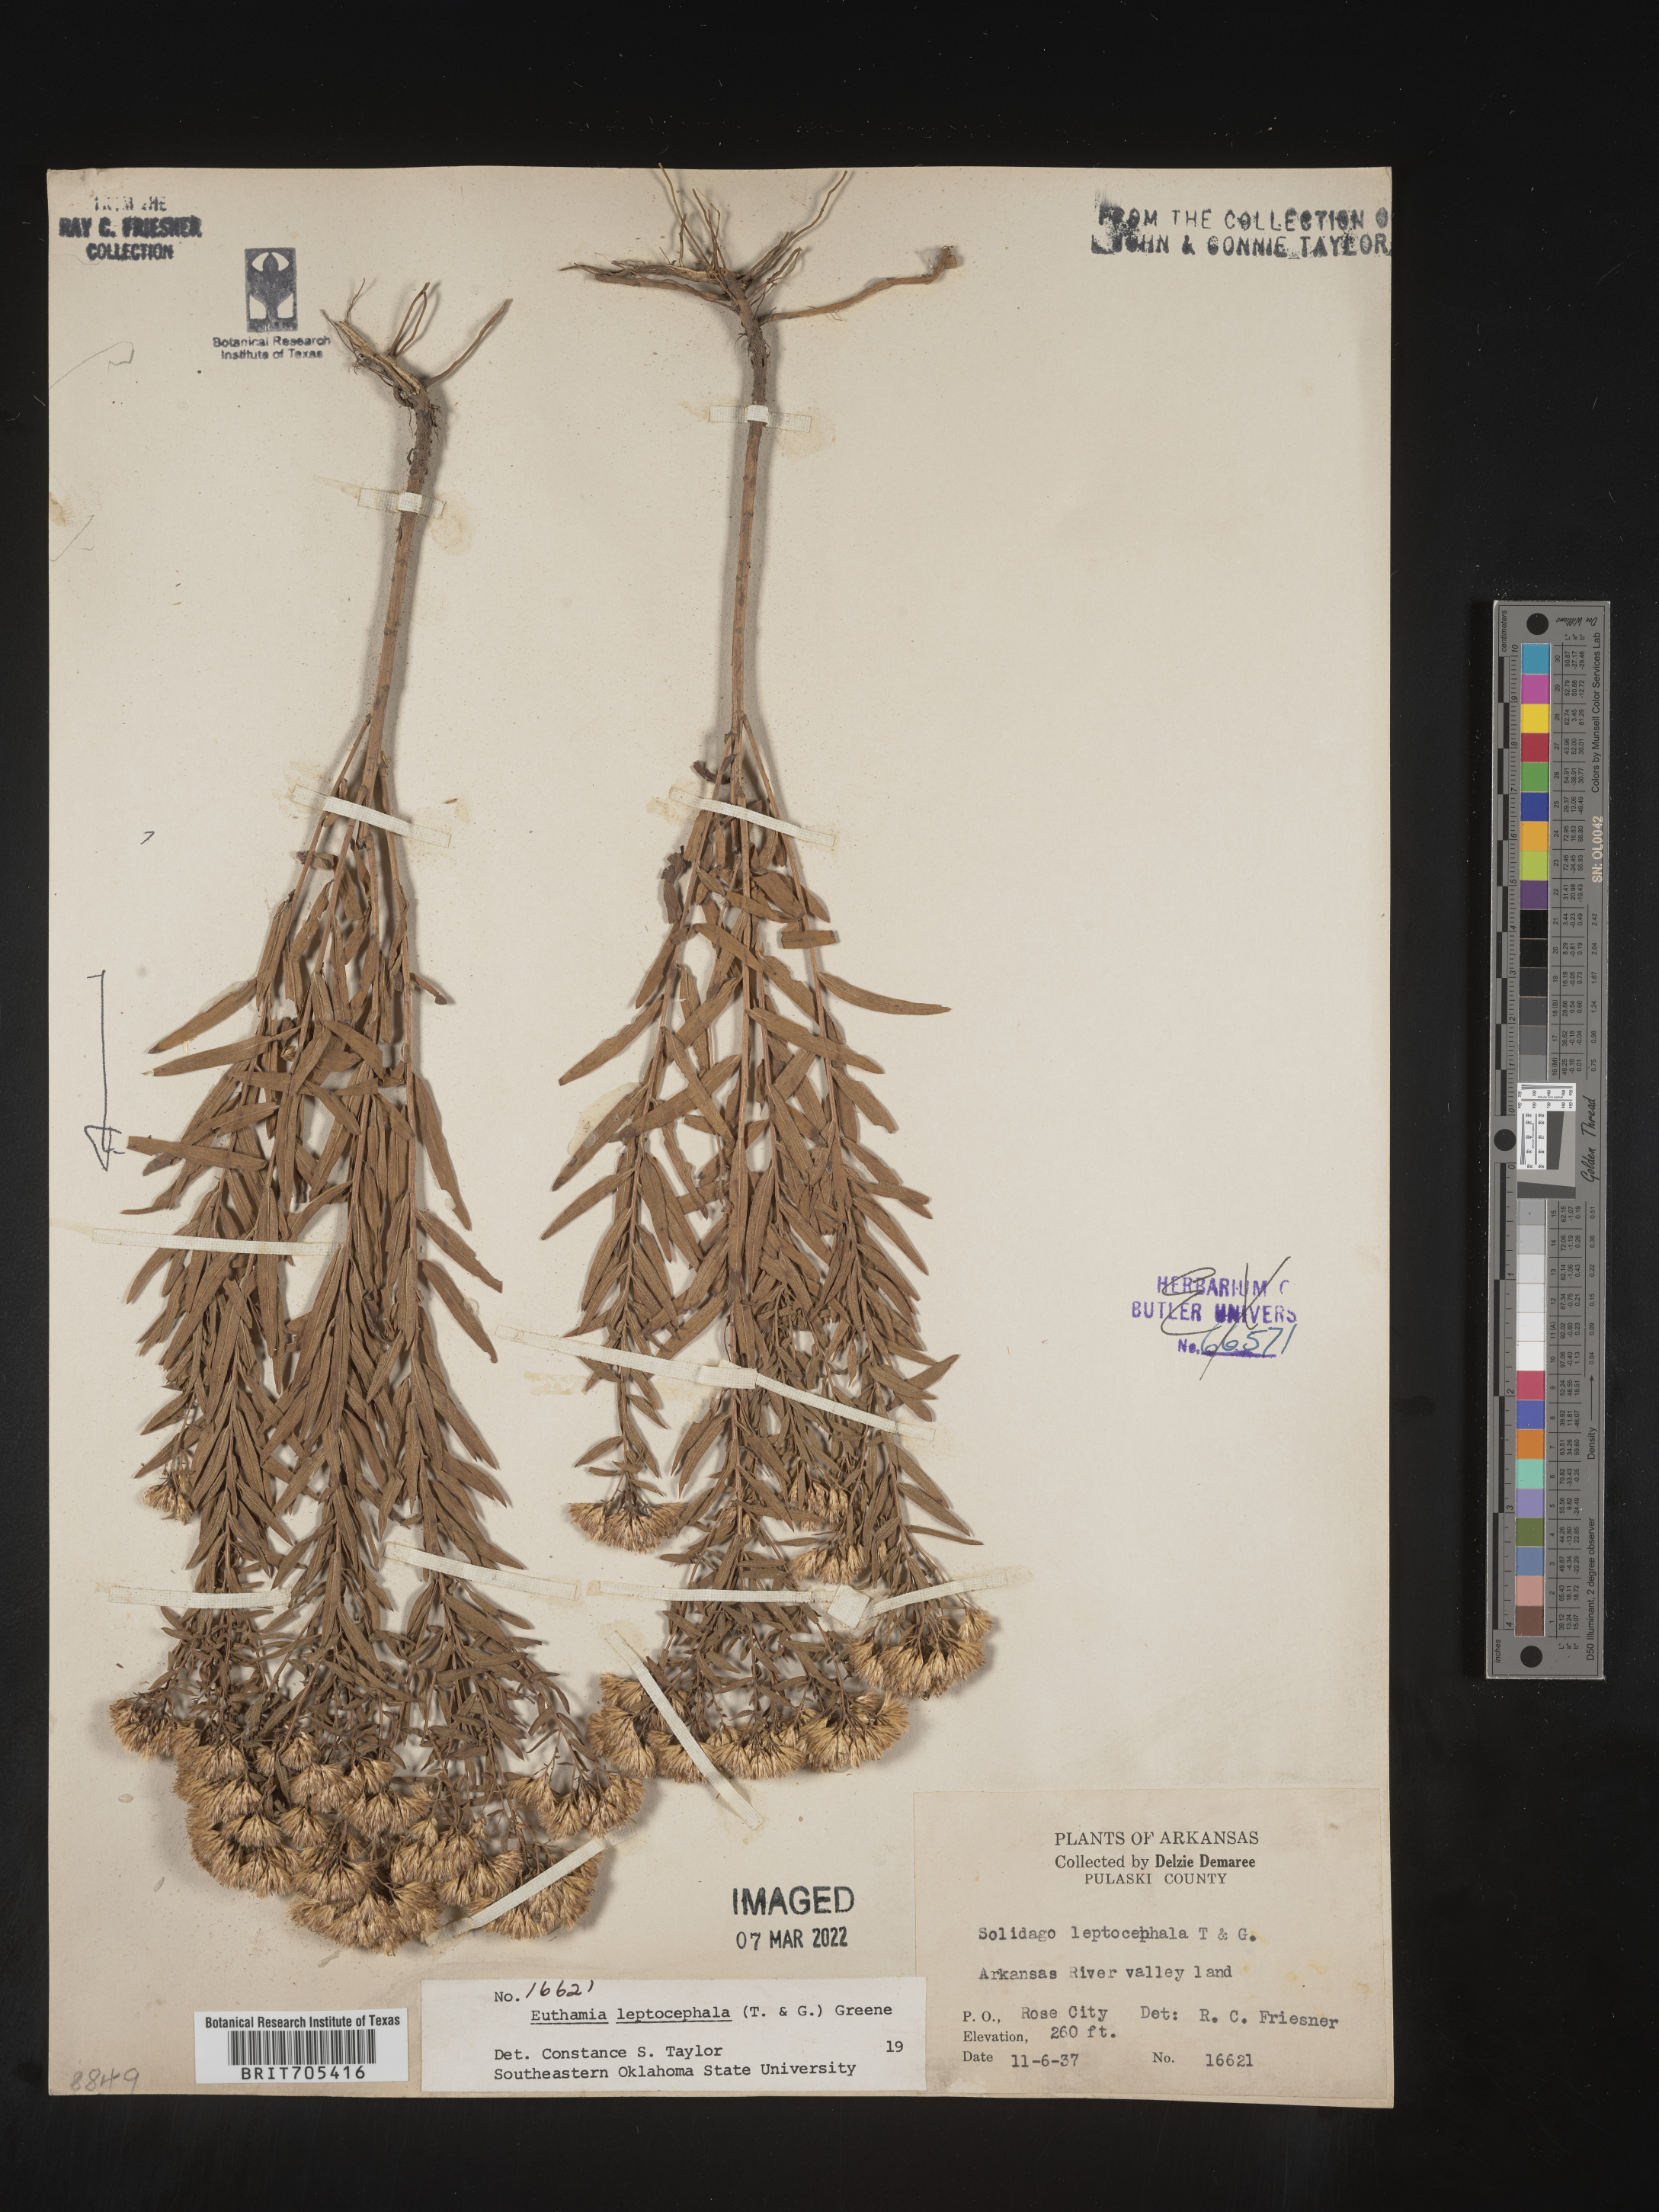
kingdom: Plantae
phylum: Tracheophyta
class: Magnoliopsida
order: Asterales
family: Asteraceae
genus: Euthamia
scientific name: Euthamia leptocephala
